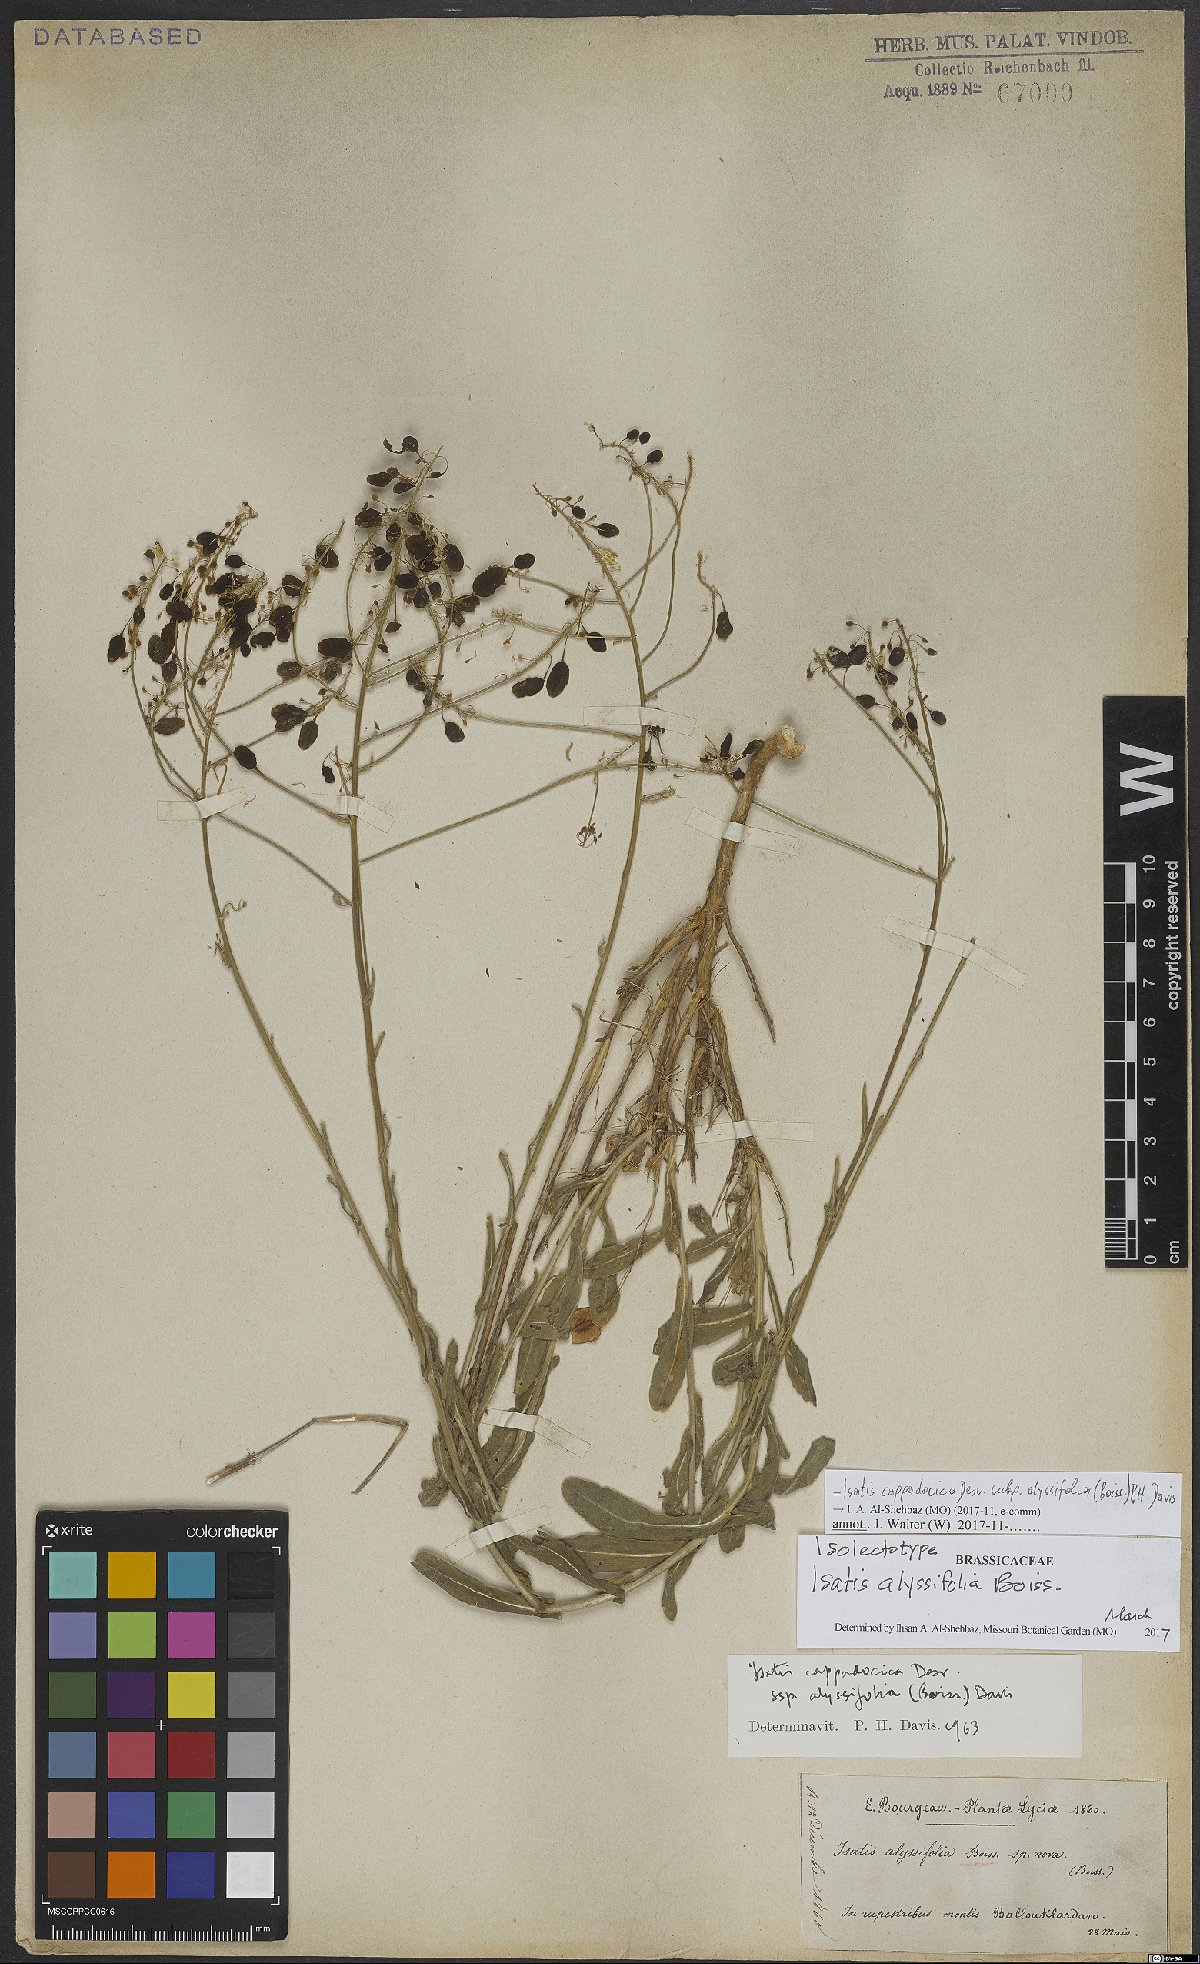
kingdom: Plantae
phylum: Tracheophyta
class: Magnoliopsida
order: Brassicales
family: Brassicaceae
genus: Isatis
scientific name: Isatis cappadocica
